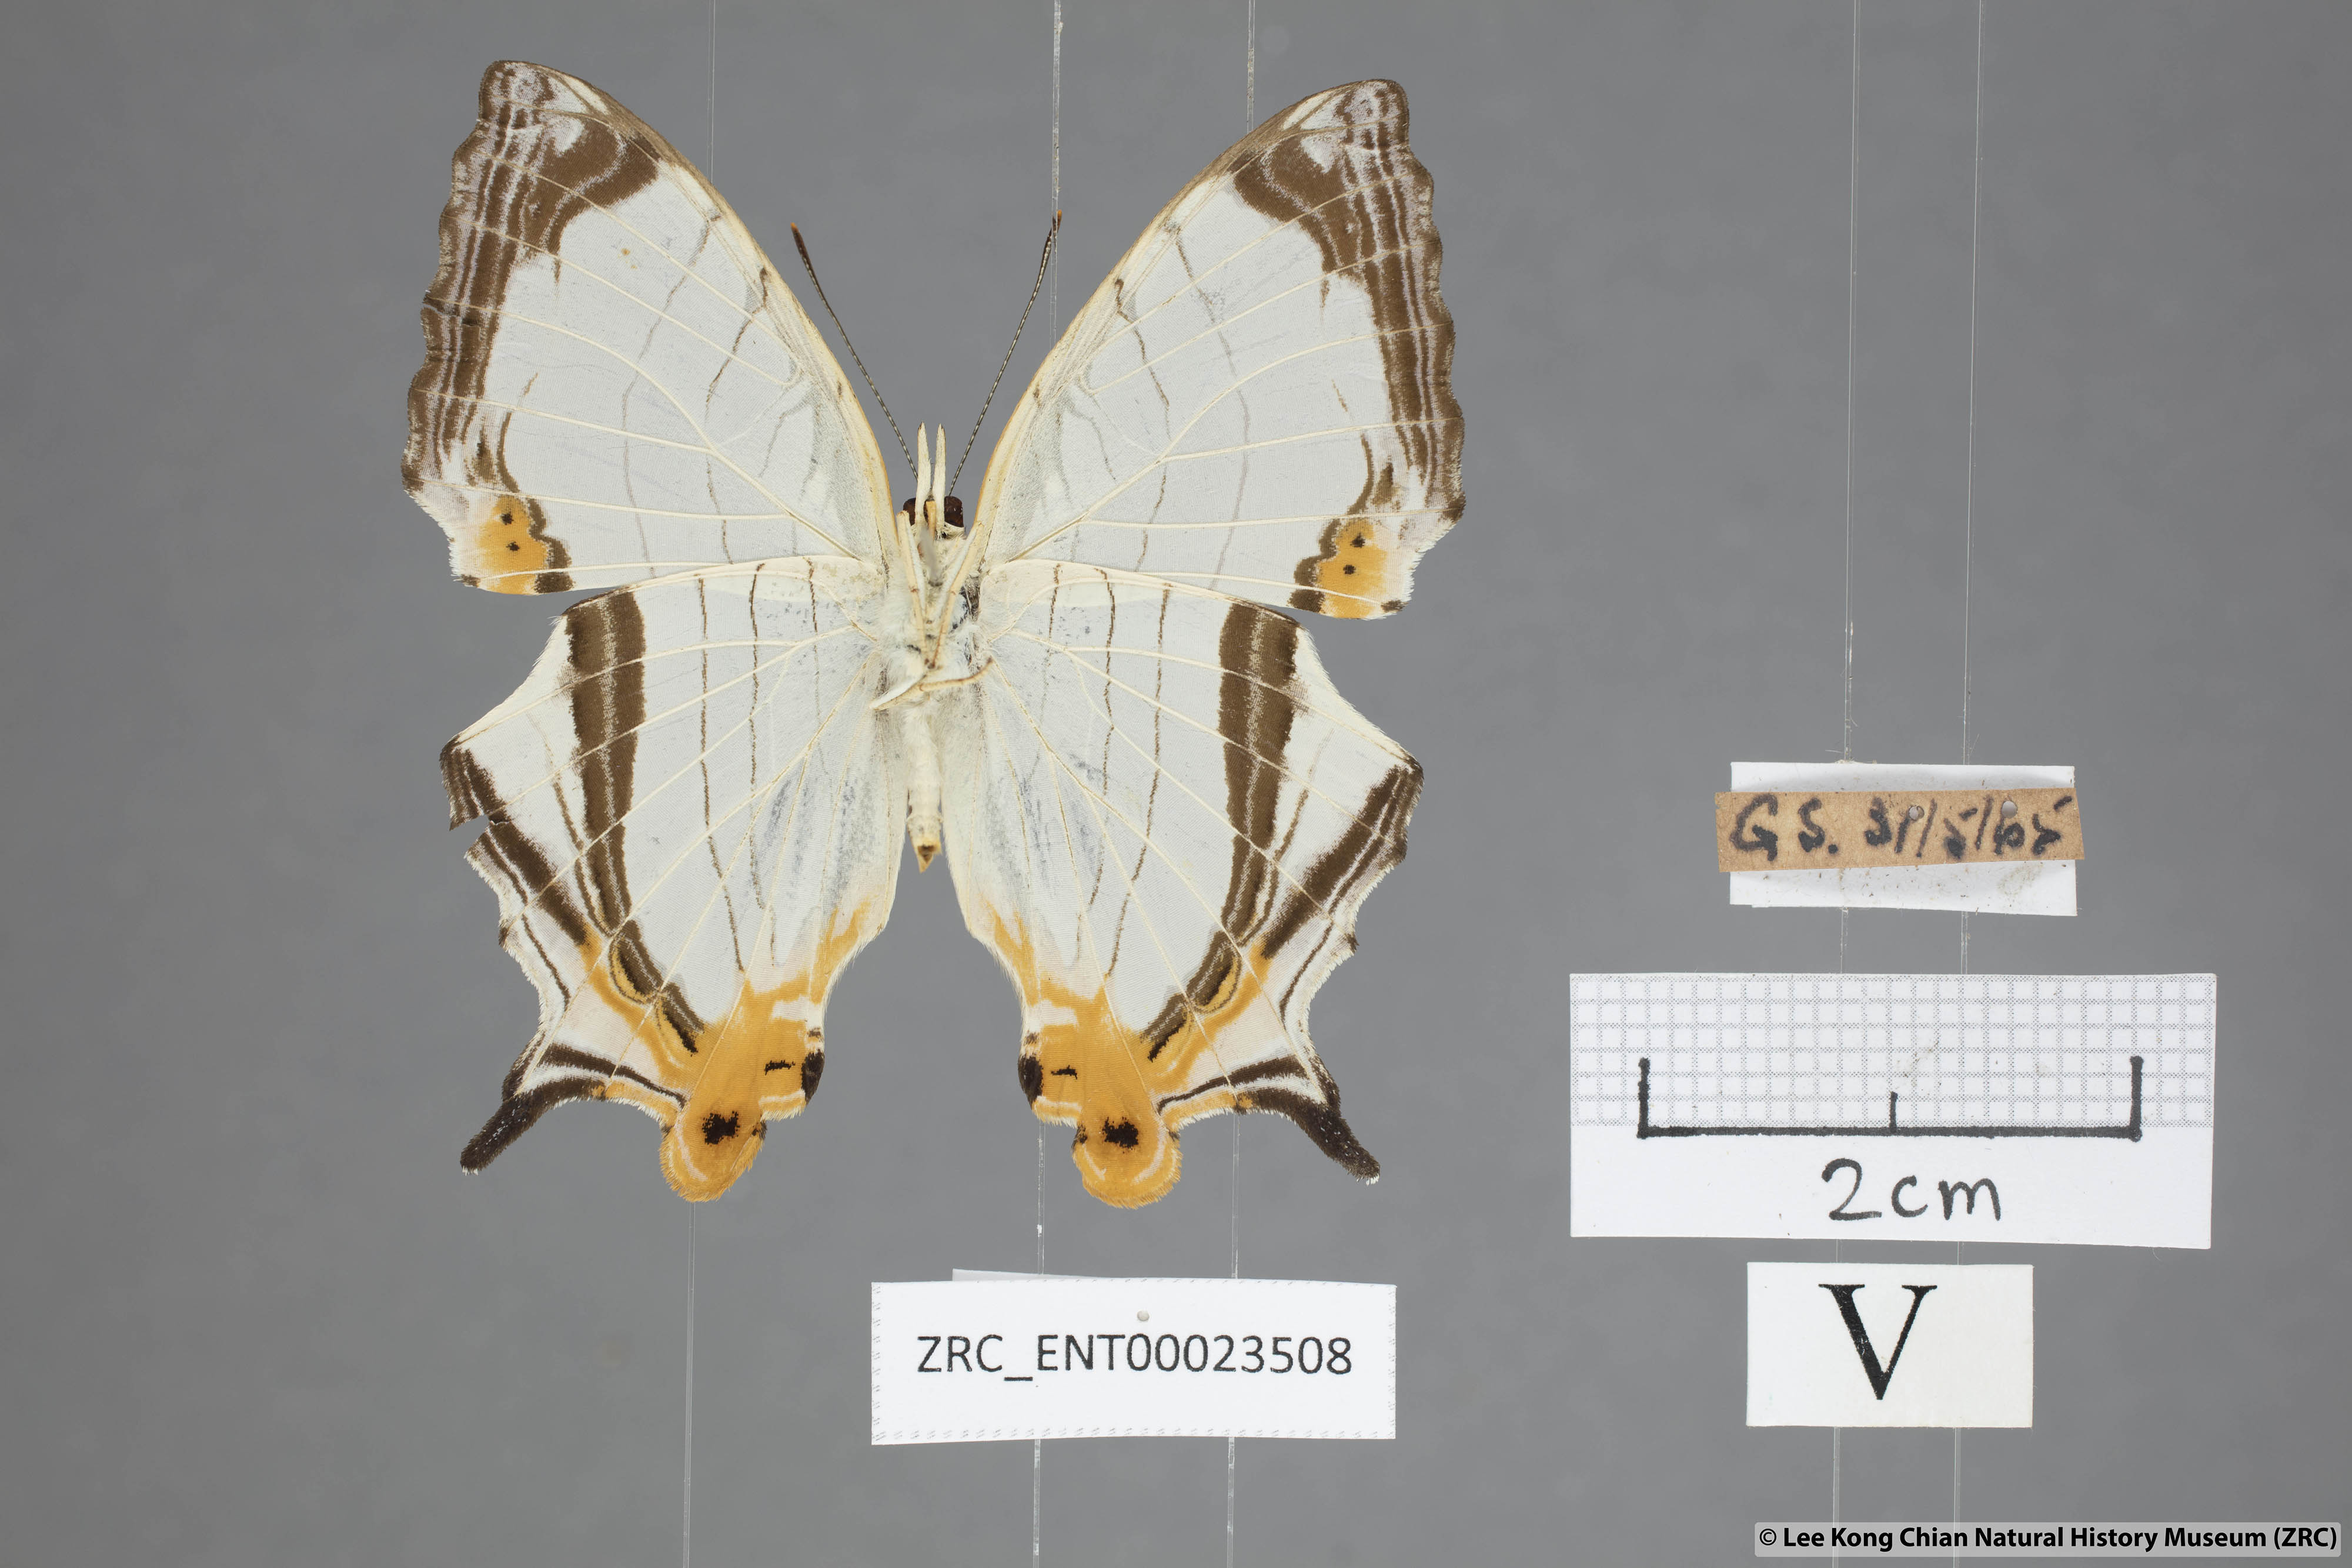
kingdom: Animalia
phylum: Arthropoda
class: Insecta
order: Lepidoptera
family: Nymphalidae
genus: Cyrestis
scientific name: Cyrestis nivea
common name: Straight line mapwing
